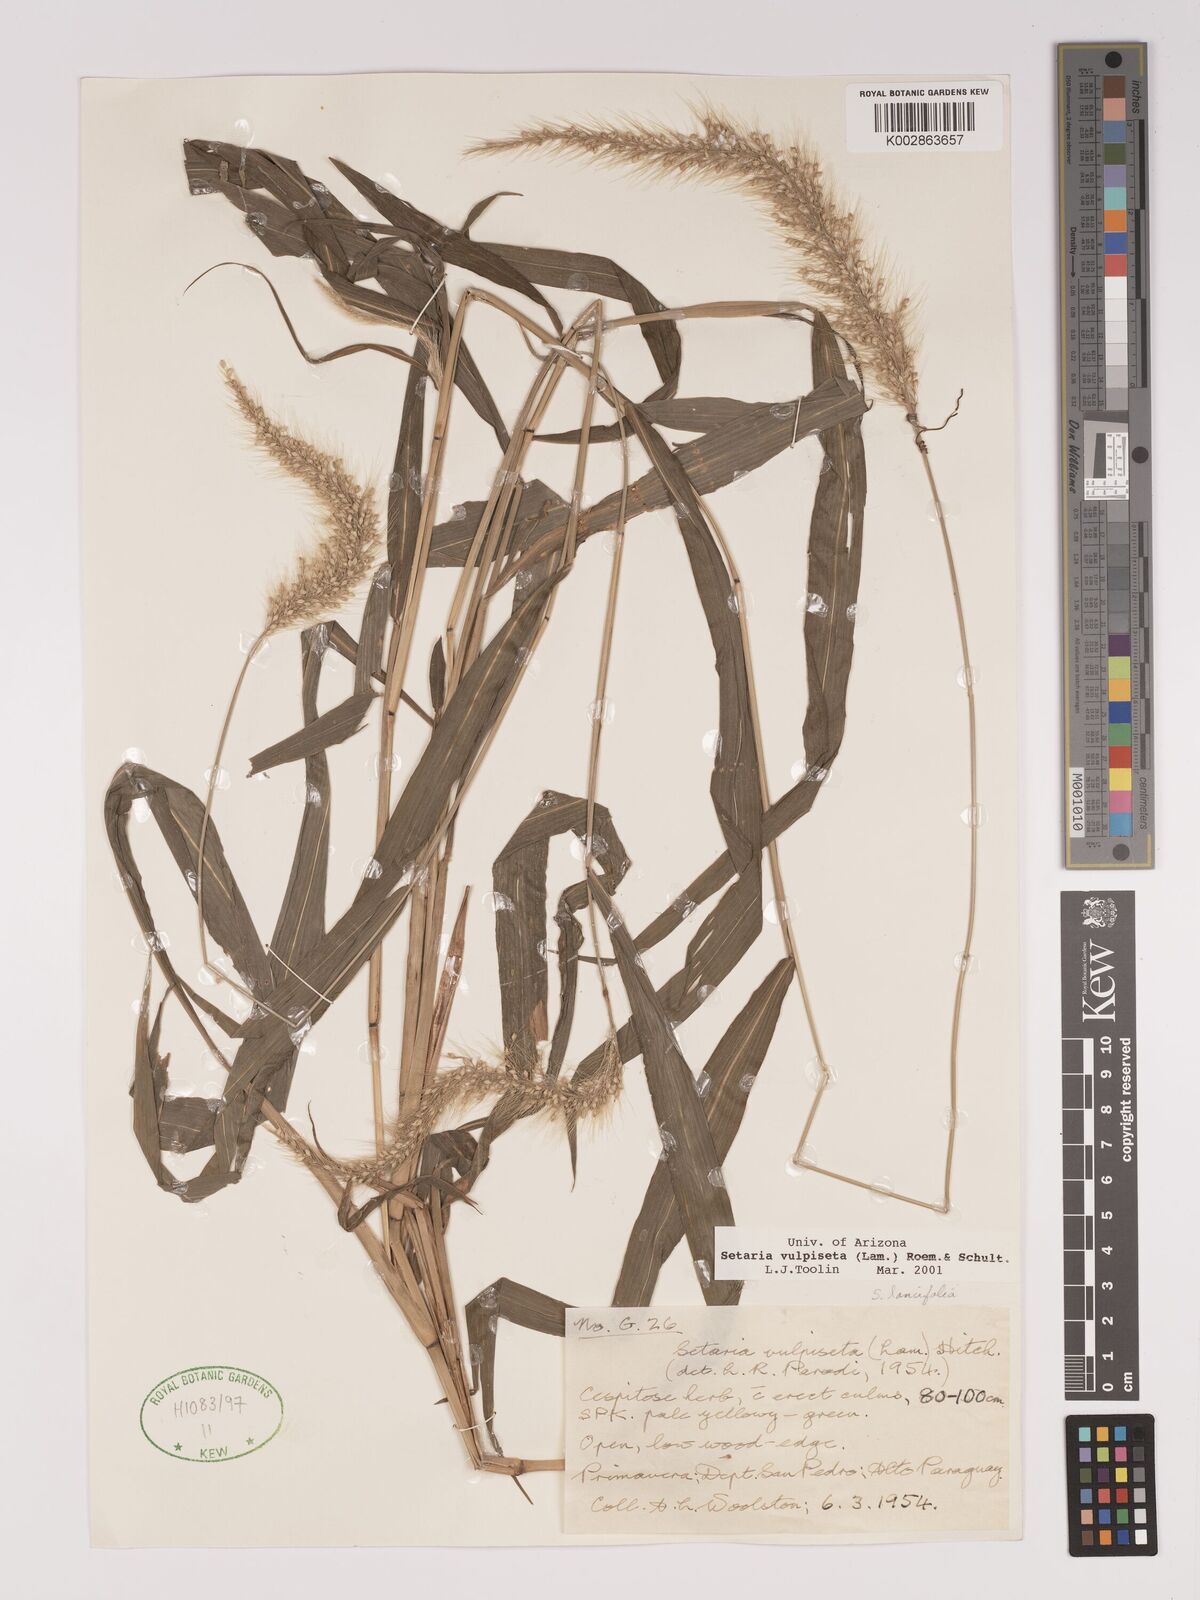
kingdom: Plantae
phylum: Tracheophyta
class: Liliopsida
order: Poales
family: Poaceae
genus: Setaria
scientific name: Setaria vulpiseta
